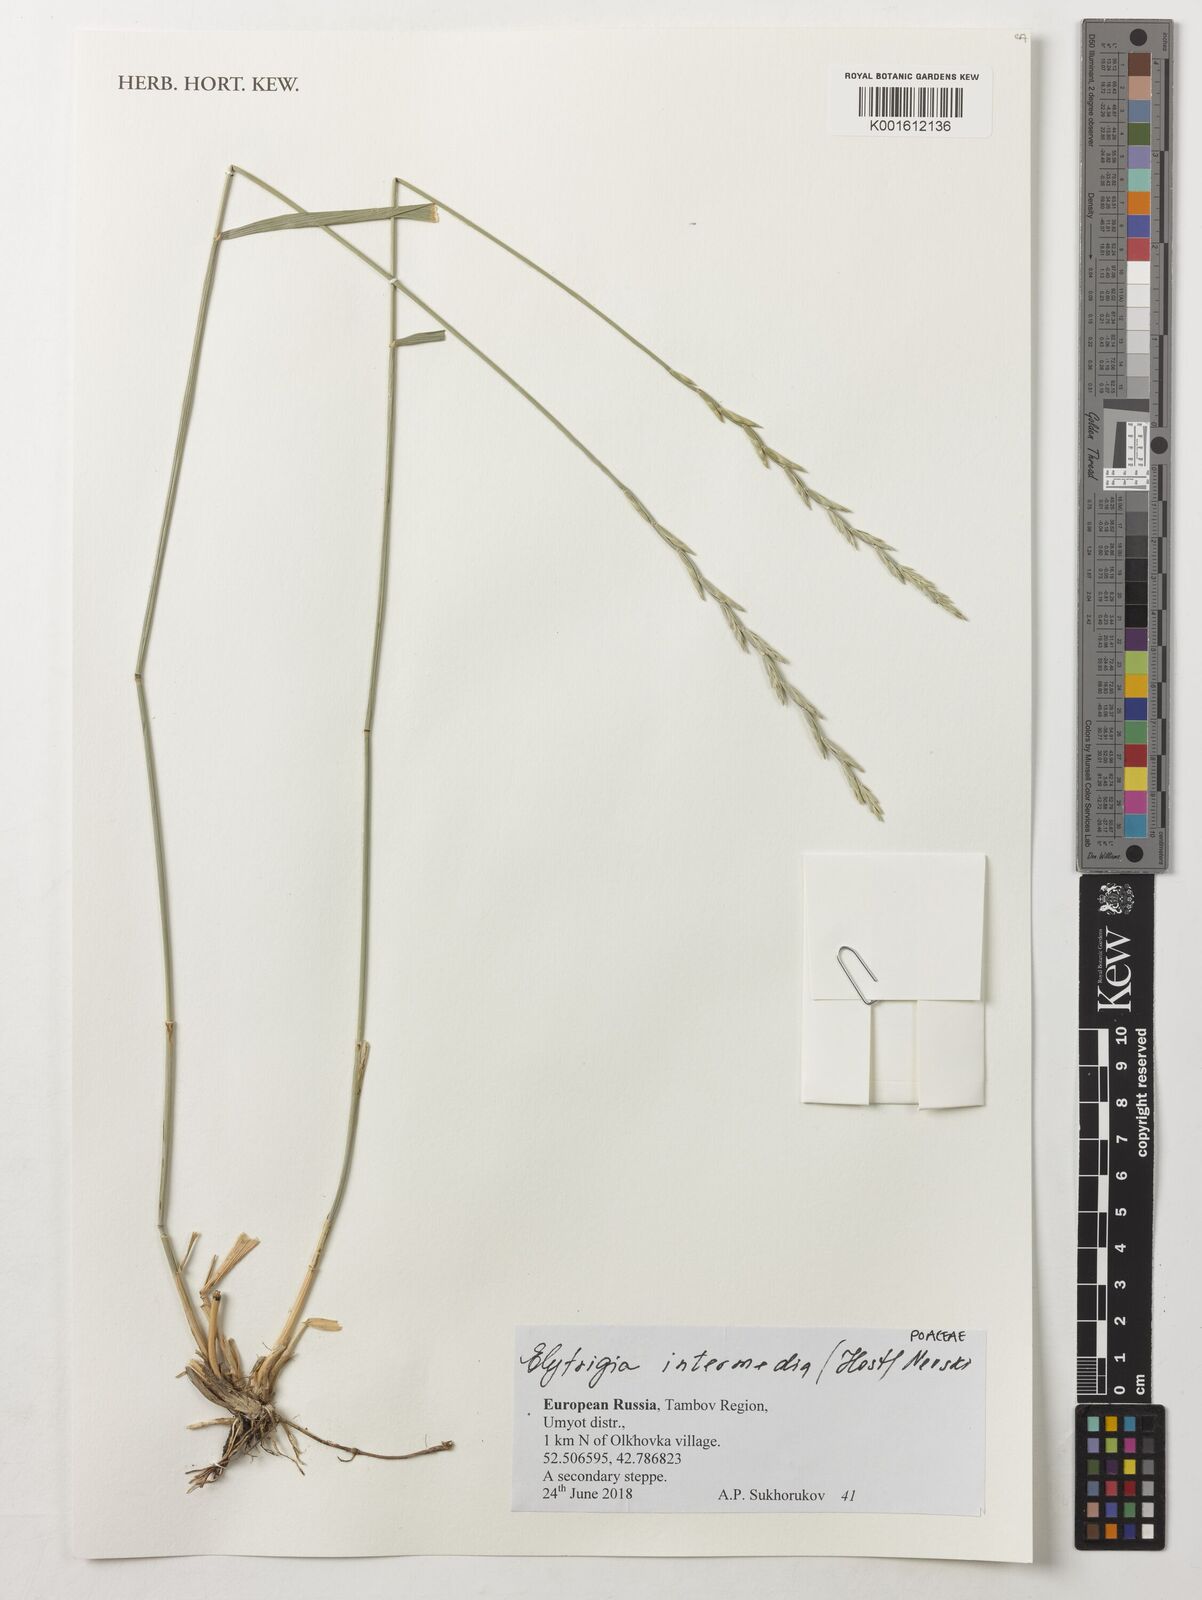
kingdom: Plantae
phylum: Tracheophyta
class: Liliopsida
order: Poales
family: Poaceae
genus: Thinopyrum
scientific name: Thinopyrum intermedium
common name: Intermediate wheatgrass
